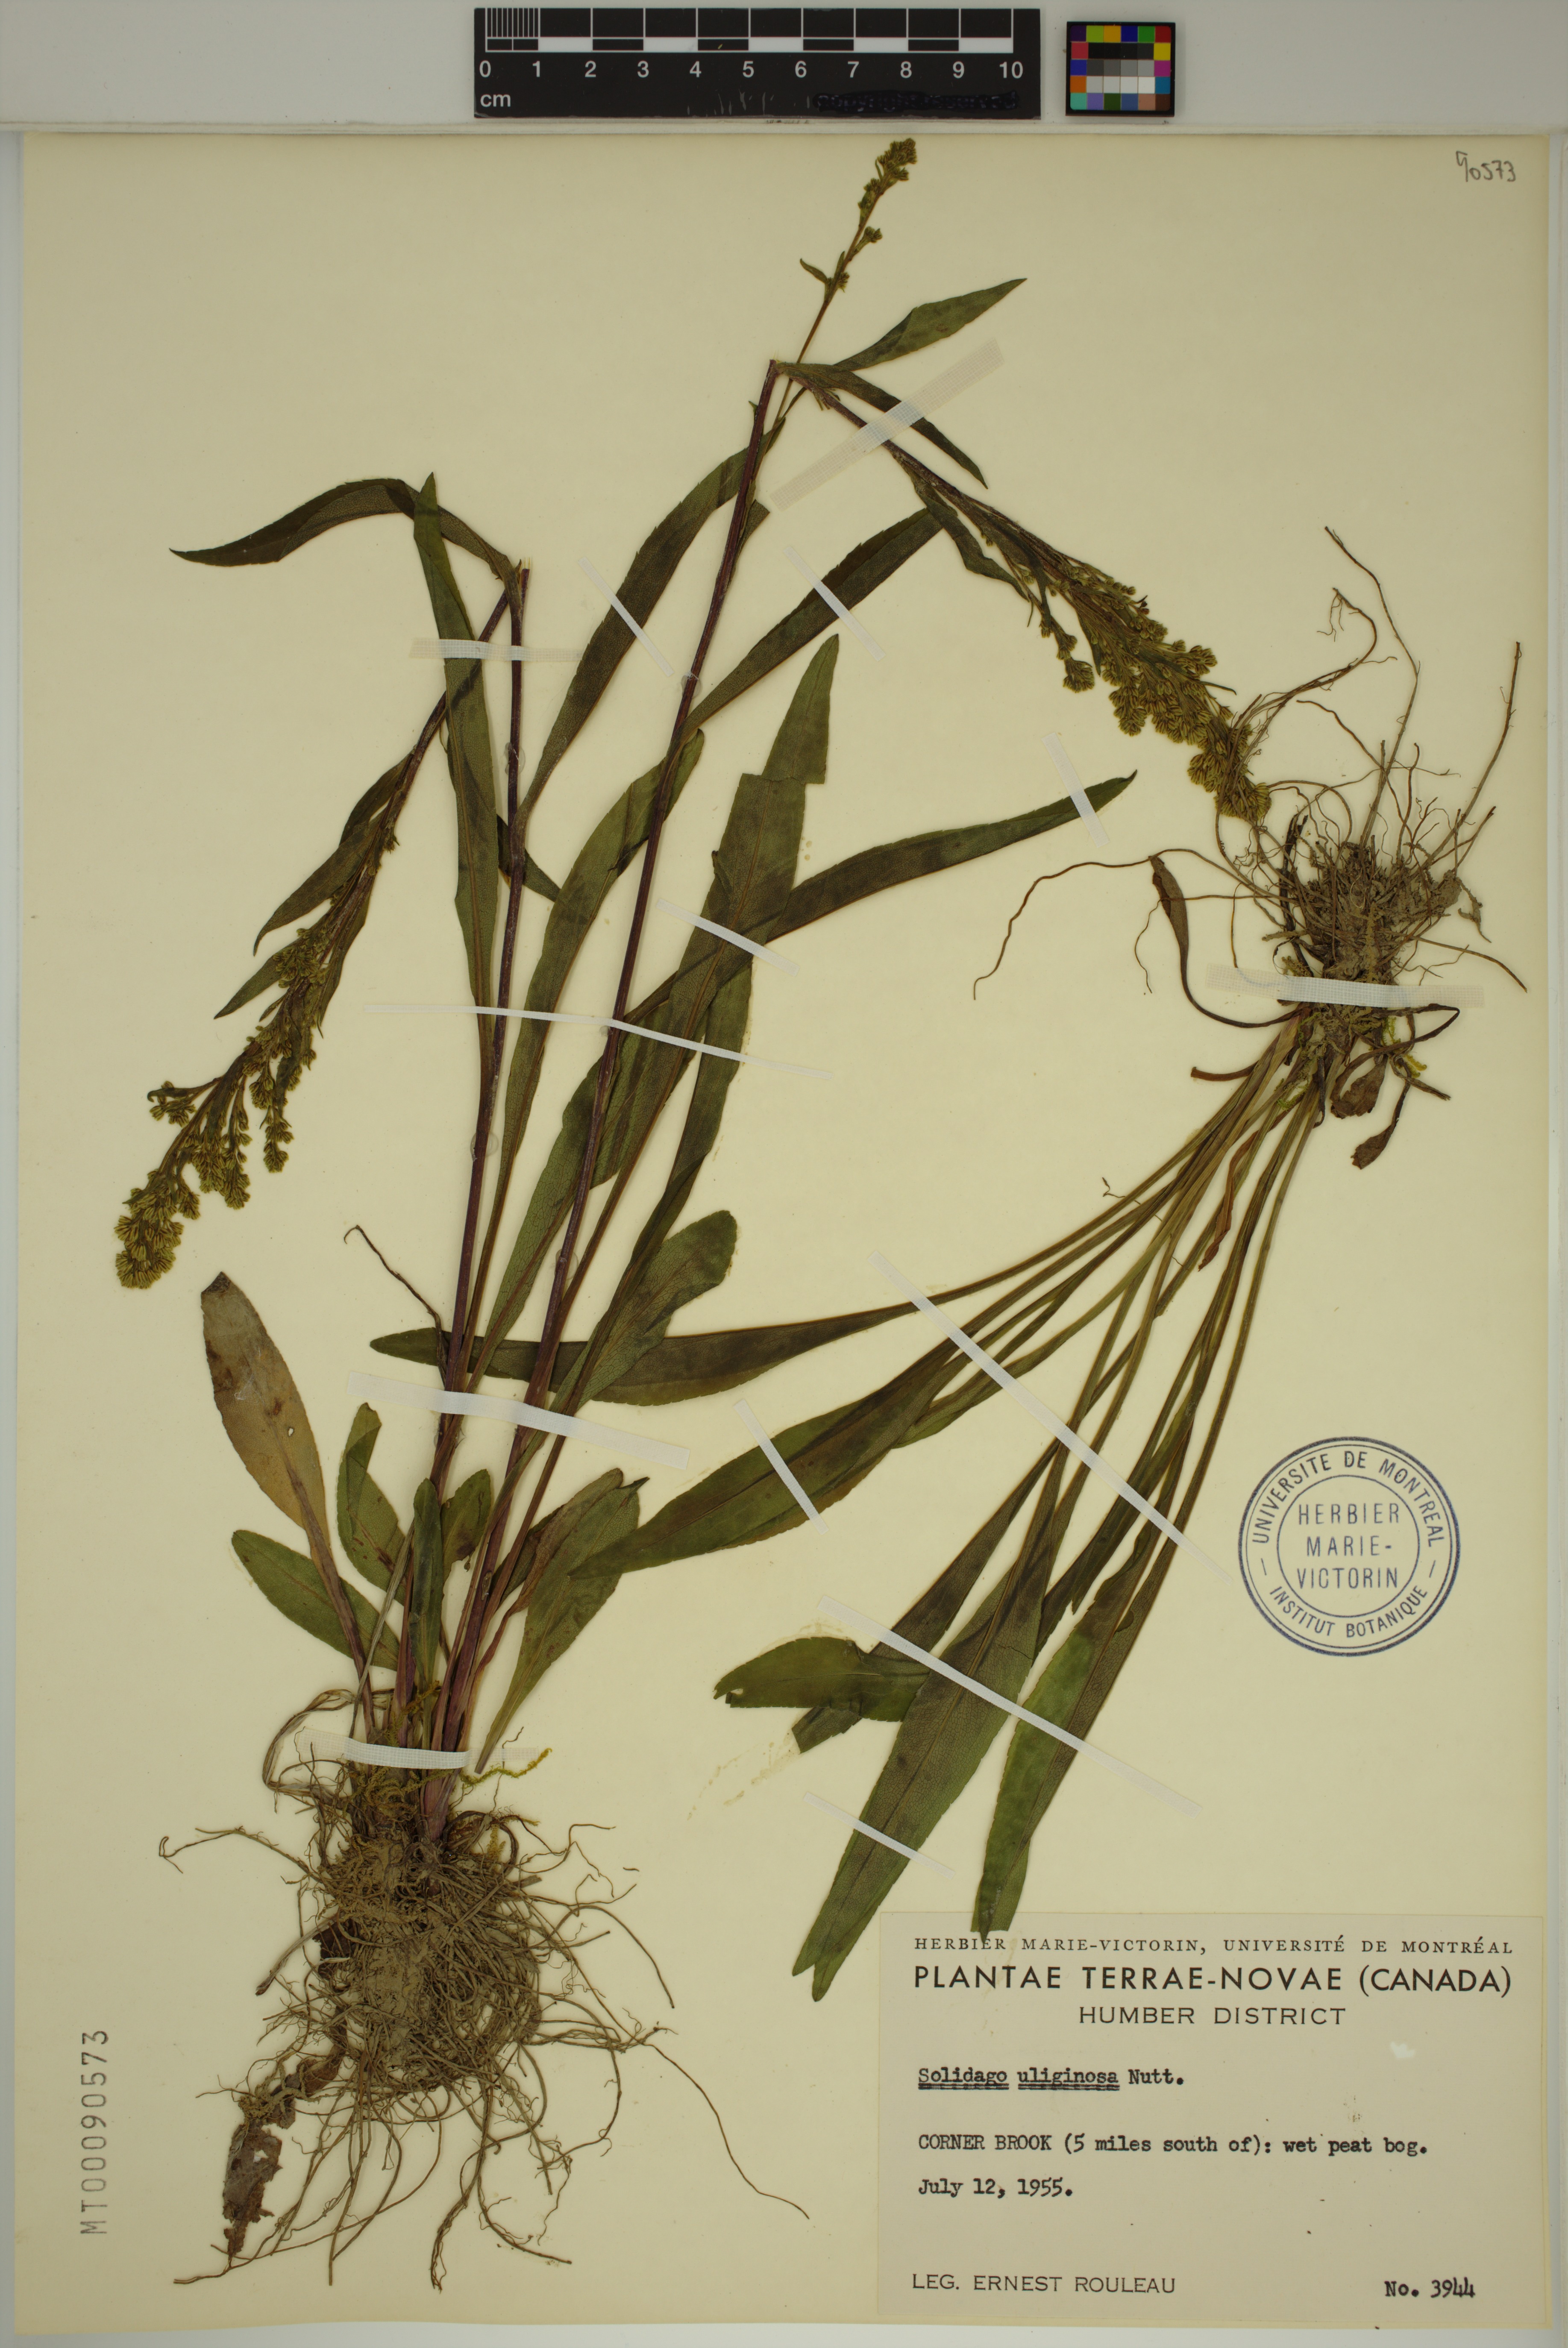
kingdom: Plantae
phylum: Tracheophyta
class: Magnoliopsida
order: Asterales
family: Asteraceae
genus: Solidago
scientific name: Solidago uliginosa
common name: Bog goldenrod
